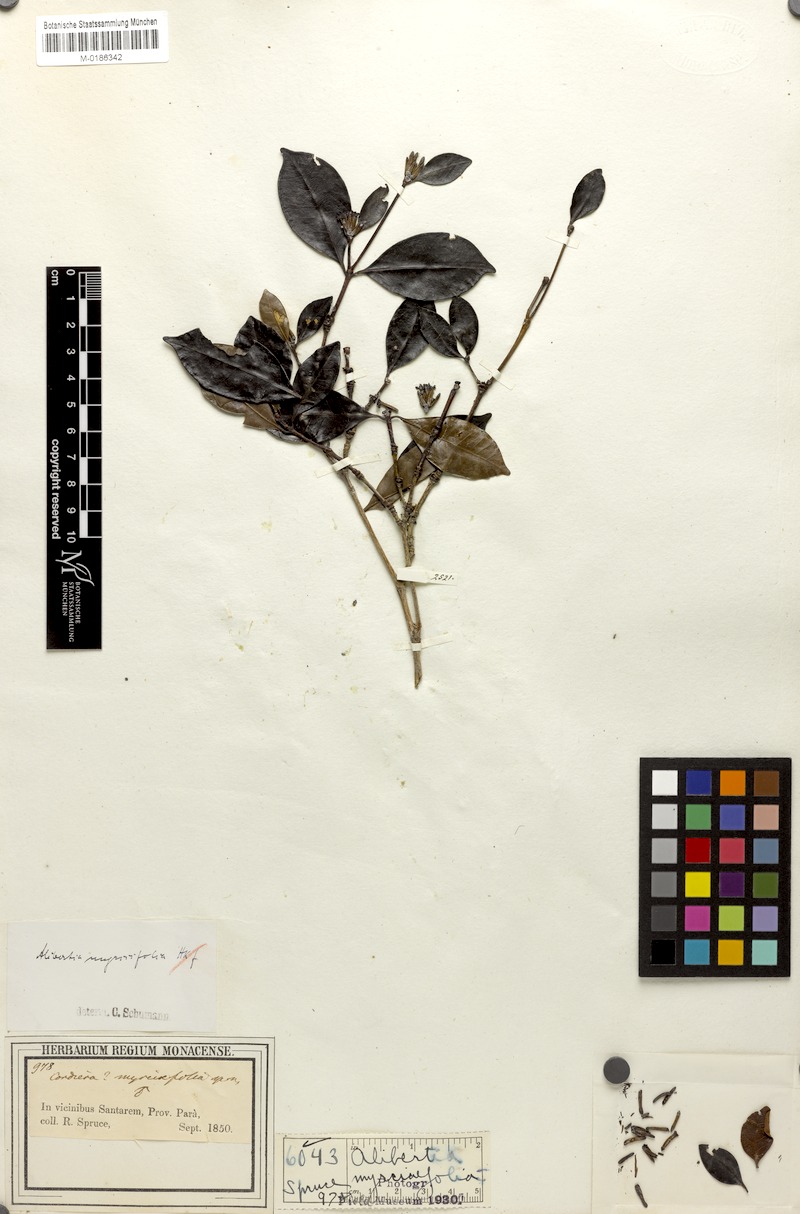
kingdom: Plantae
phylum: Tracheophyta
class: Magnoliopsida
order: Gentianales
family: Rubiaceae
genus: Cordiera
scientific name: Cordiera myrciifolia
